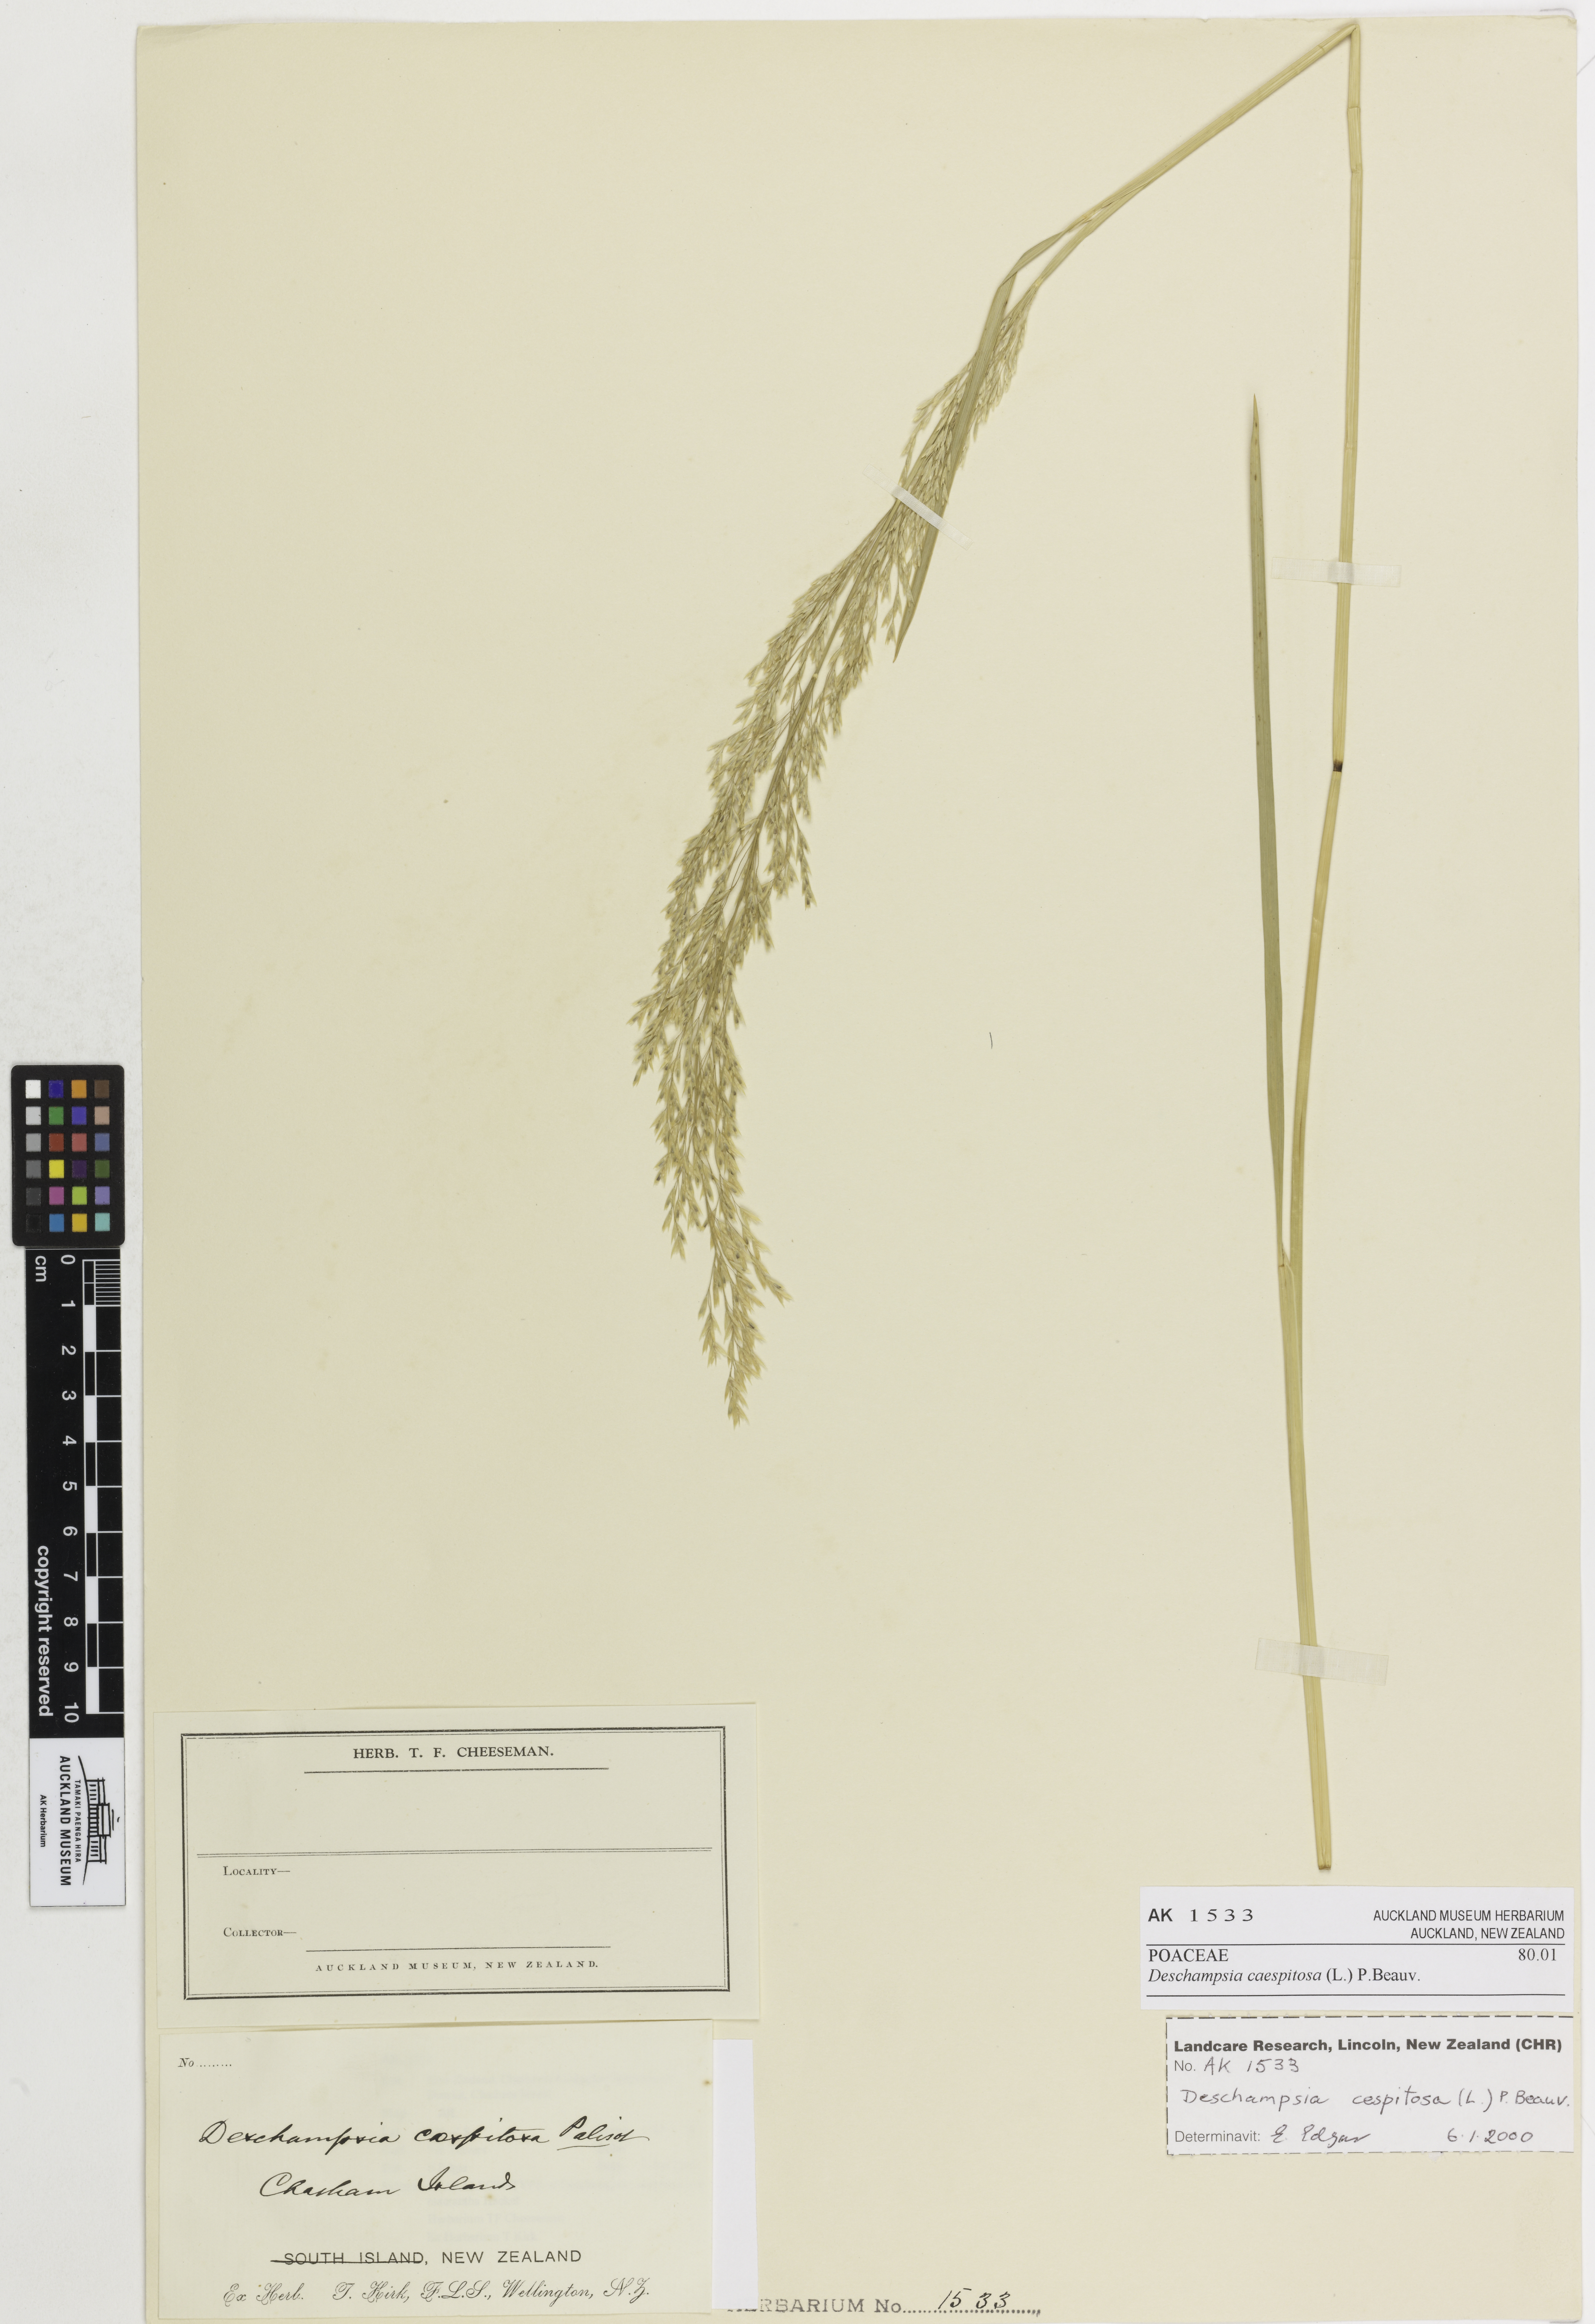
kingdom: Plantae
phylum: Tracheophyta
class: Liliopsida
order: Poales
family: Poaceae
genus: Deschampsia
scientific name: Deschampsia cespitosa
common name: Tufted hair-grass
